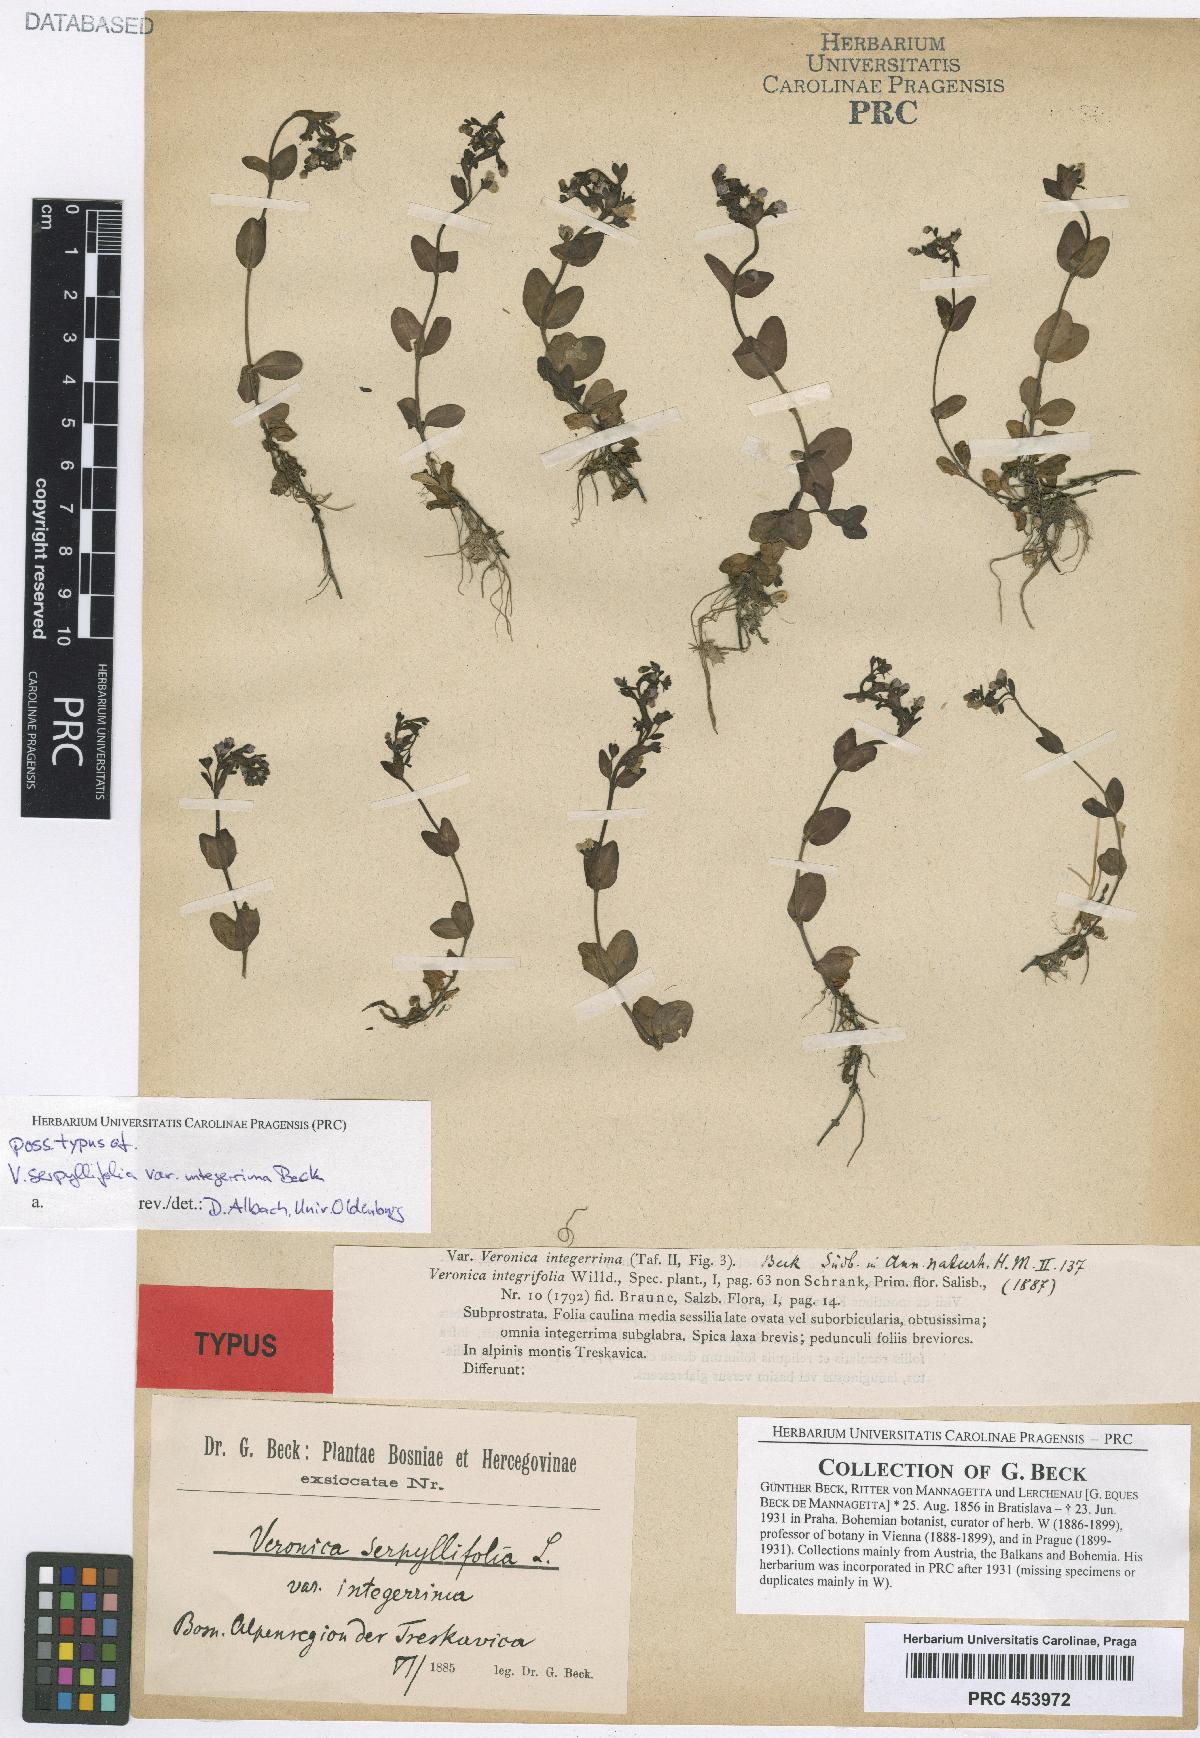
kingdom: Plantae
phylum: Tracheophyta
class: Magnoliopsida
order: Lamiales
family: Plantaginaceae
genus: Veronica
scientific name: Veronica alpina
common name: Alpine speedwell
